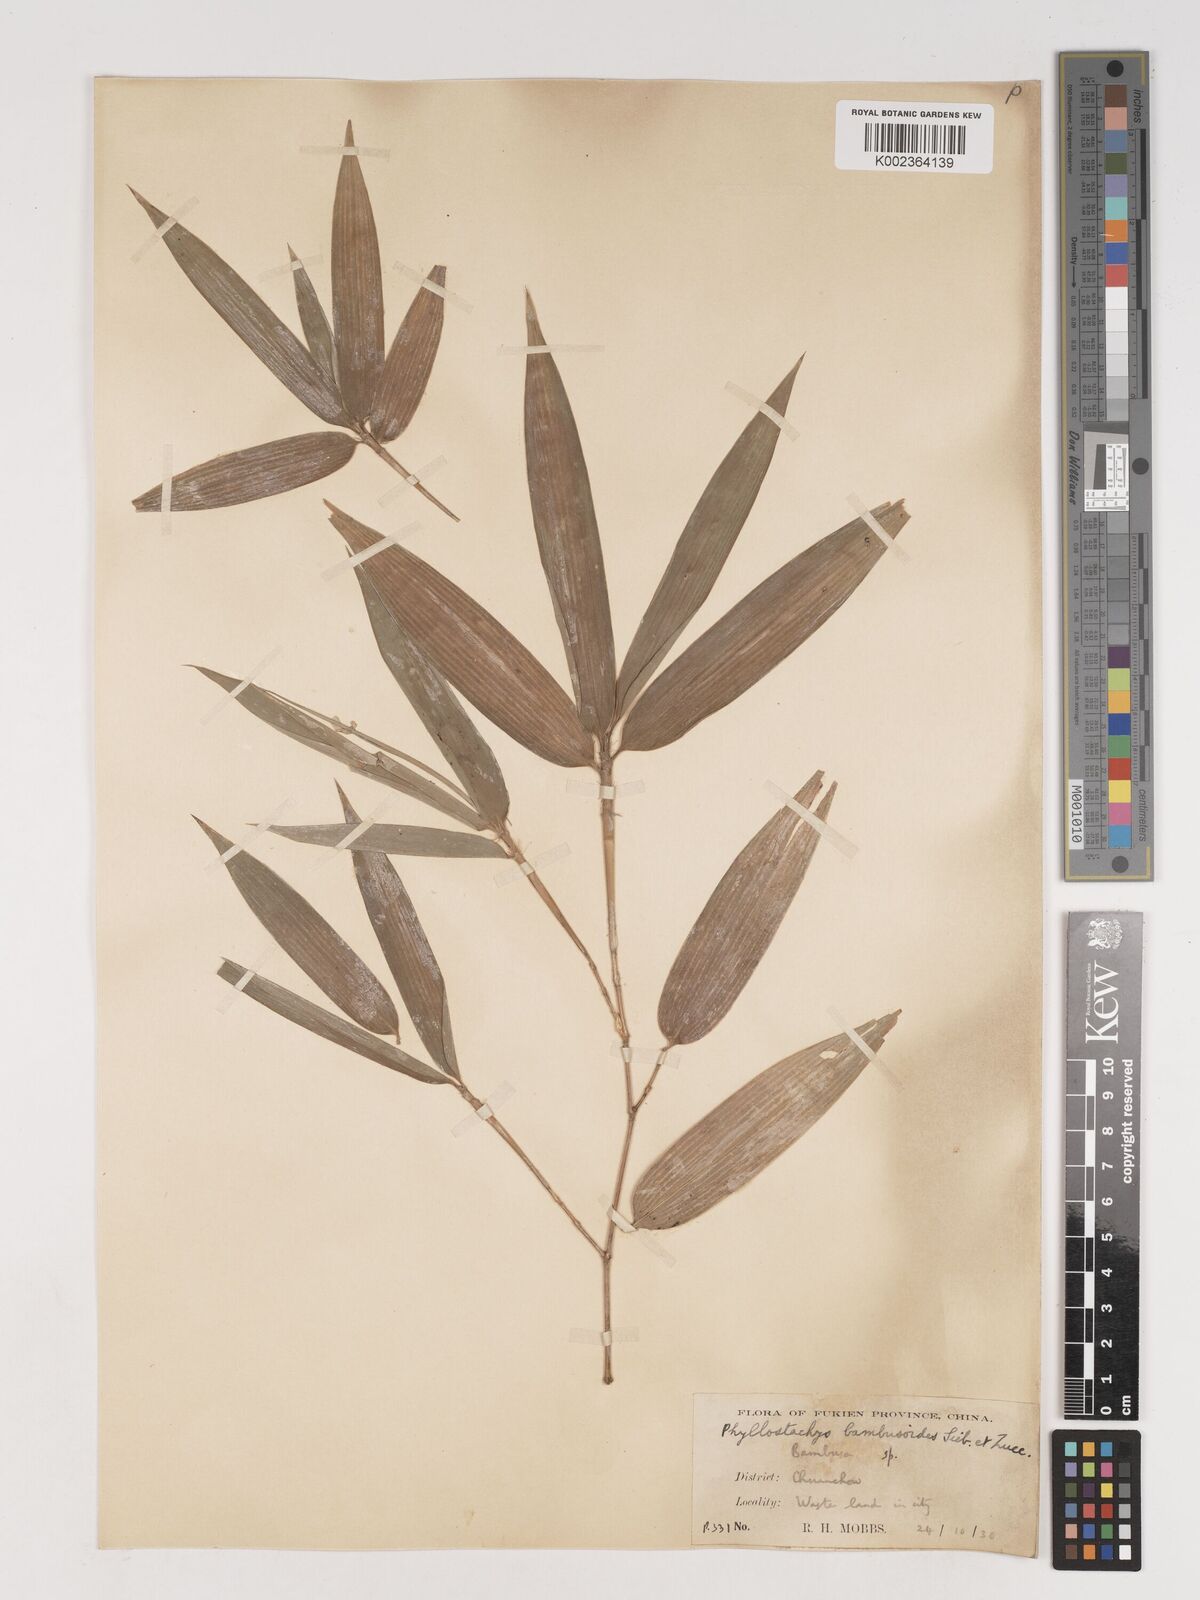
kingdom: Plantae
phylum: Tracheophyta
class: Liliopsida
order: Poales
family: Poaceae
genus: Phyllostachys
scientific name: Phyllostachys reticulata
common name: Bamboo
